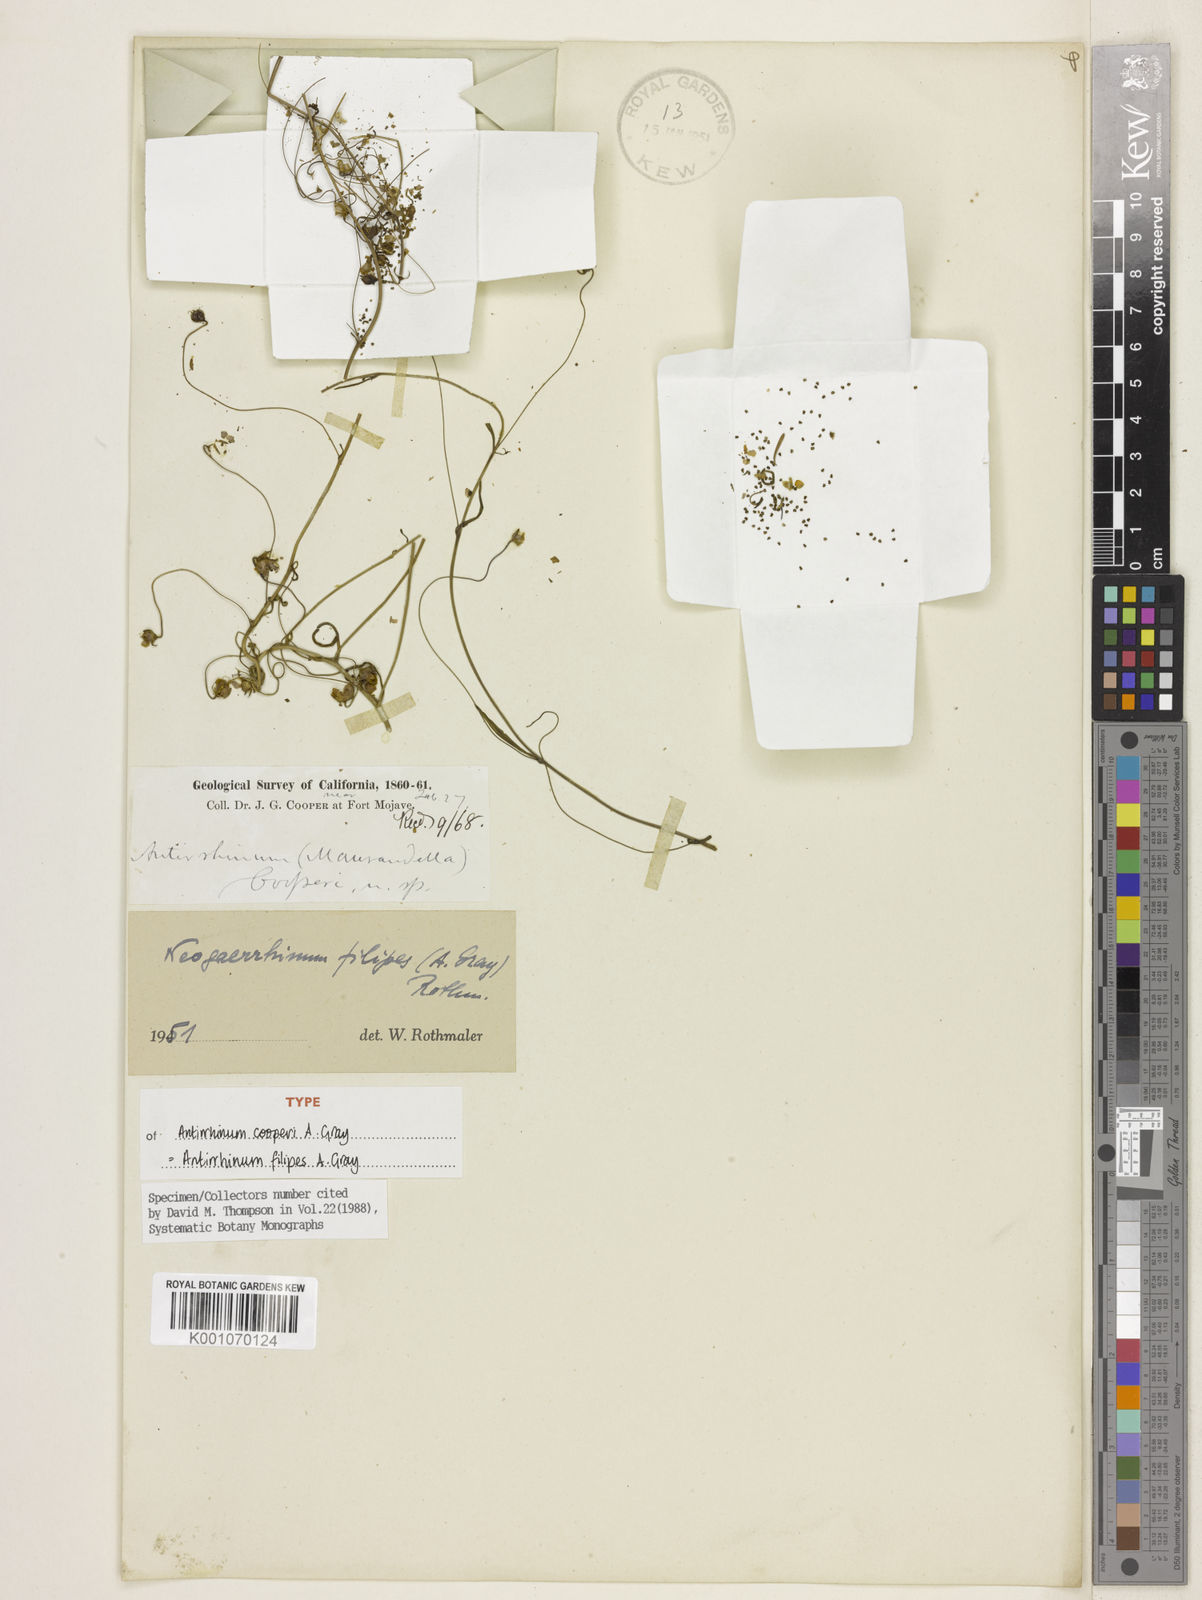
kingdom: Plantae
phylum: Tracheophyta
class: Magnoliopsida
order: Lamiales
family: Plantaginaceae
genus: Neogaerrhinum
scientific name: Neogaerrhinum filipes
